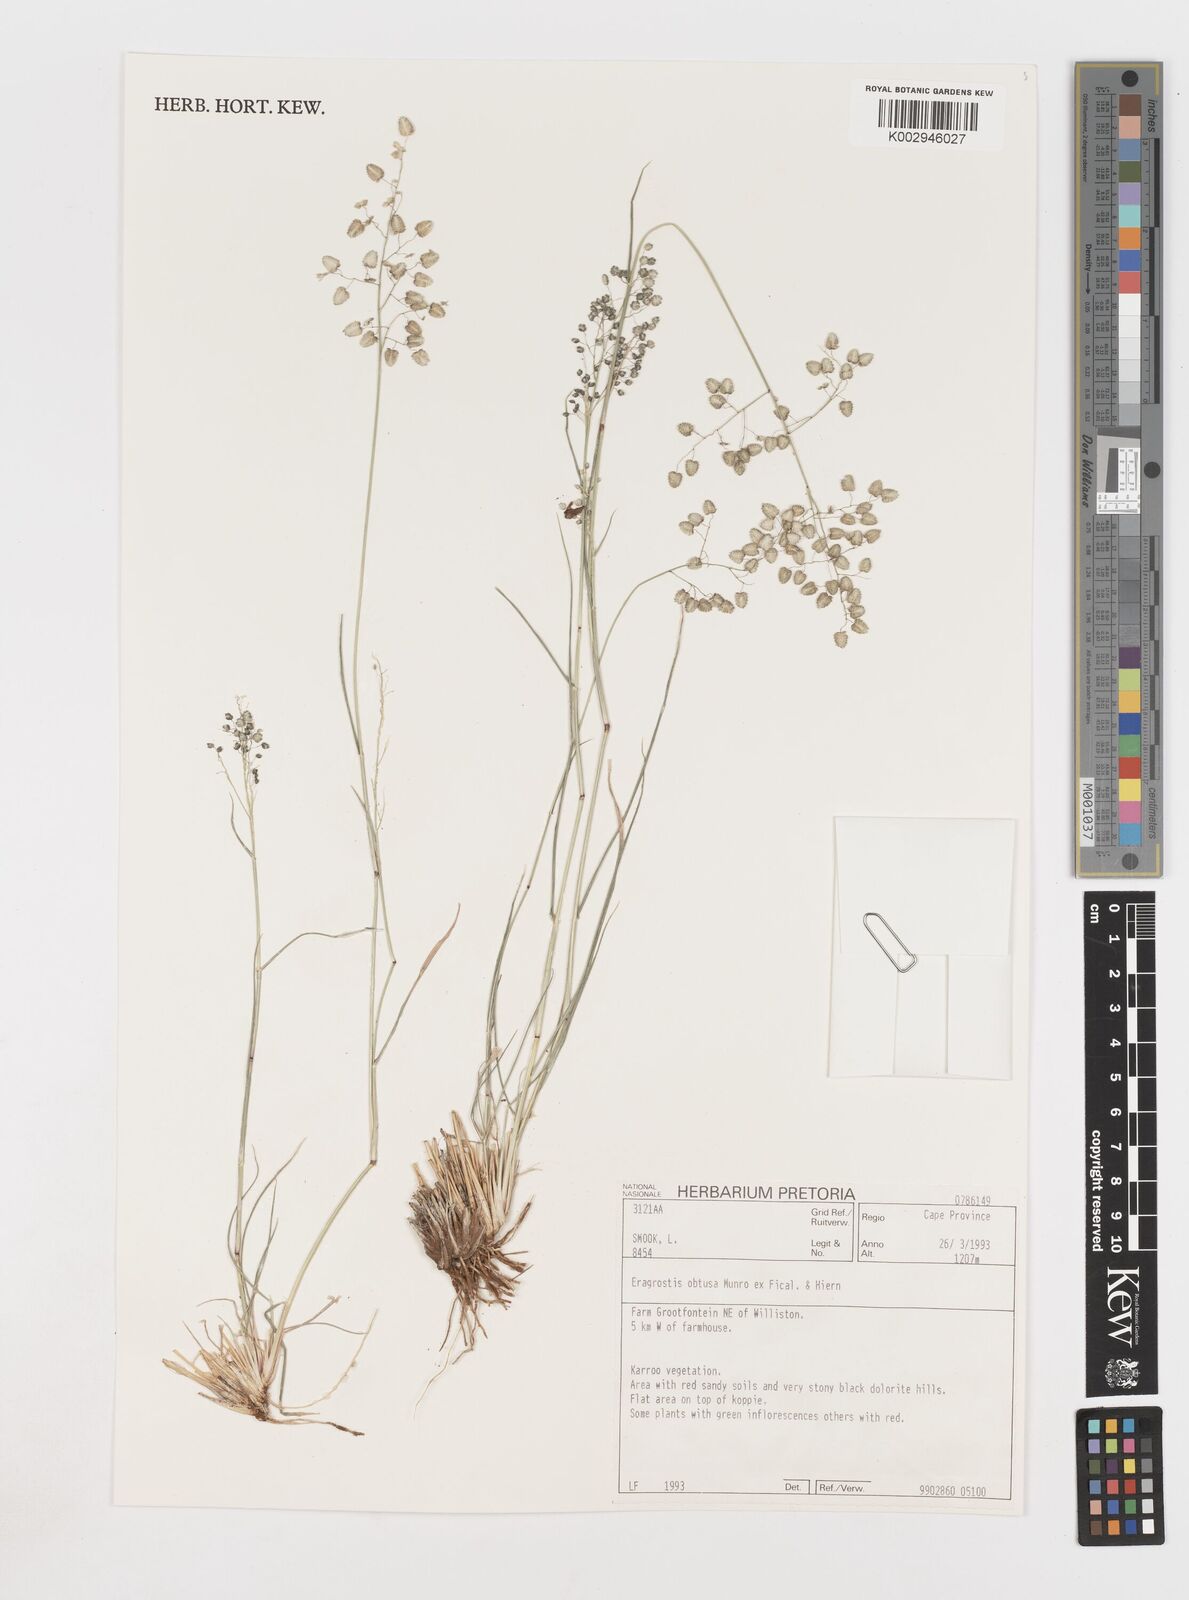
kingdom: Plantae
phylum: Tracheophyta
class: Liliopsida
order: Poales
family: Poaceae
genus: Eragrostis
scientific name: Eragrostis obtusa
